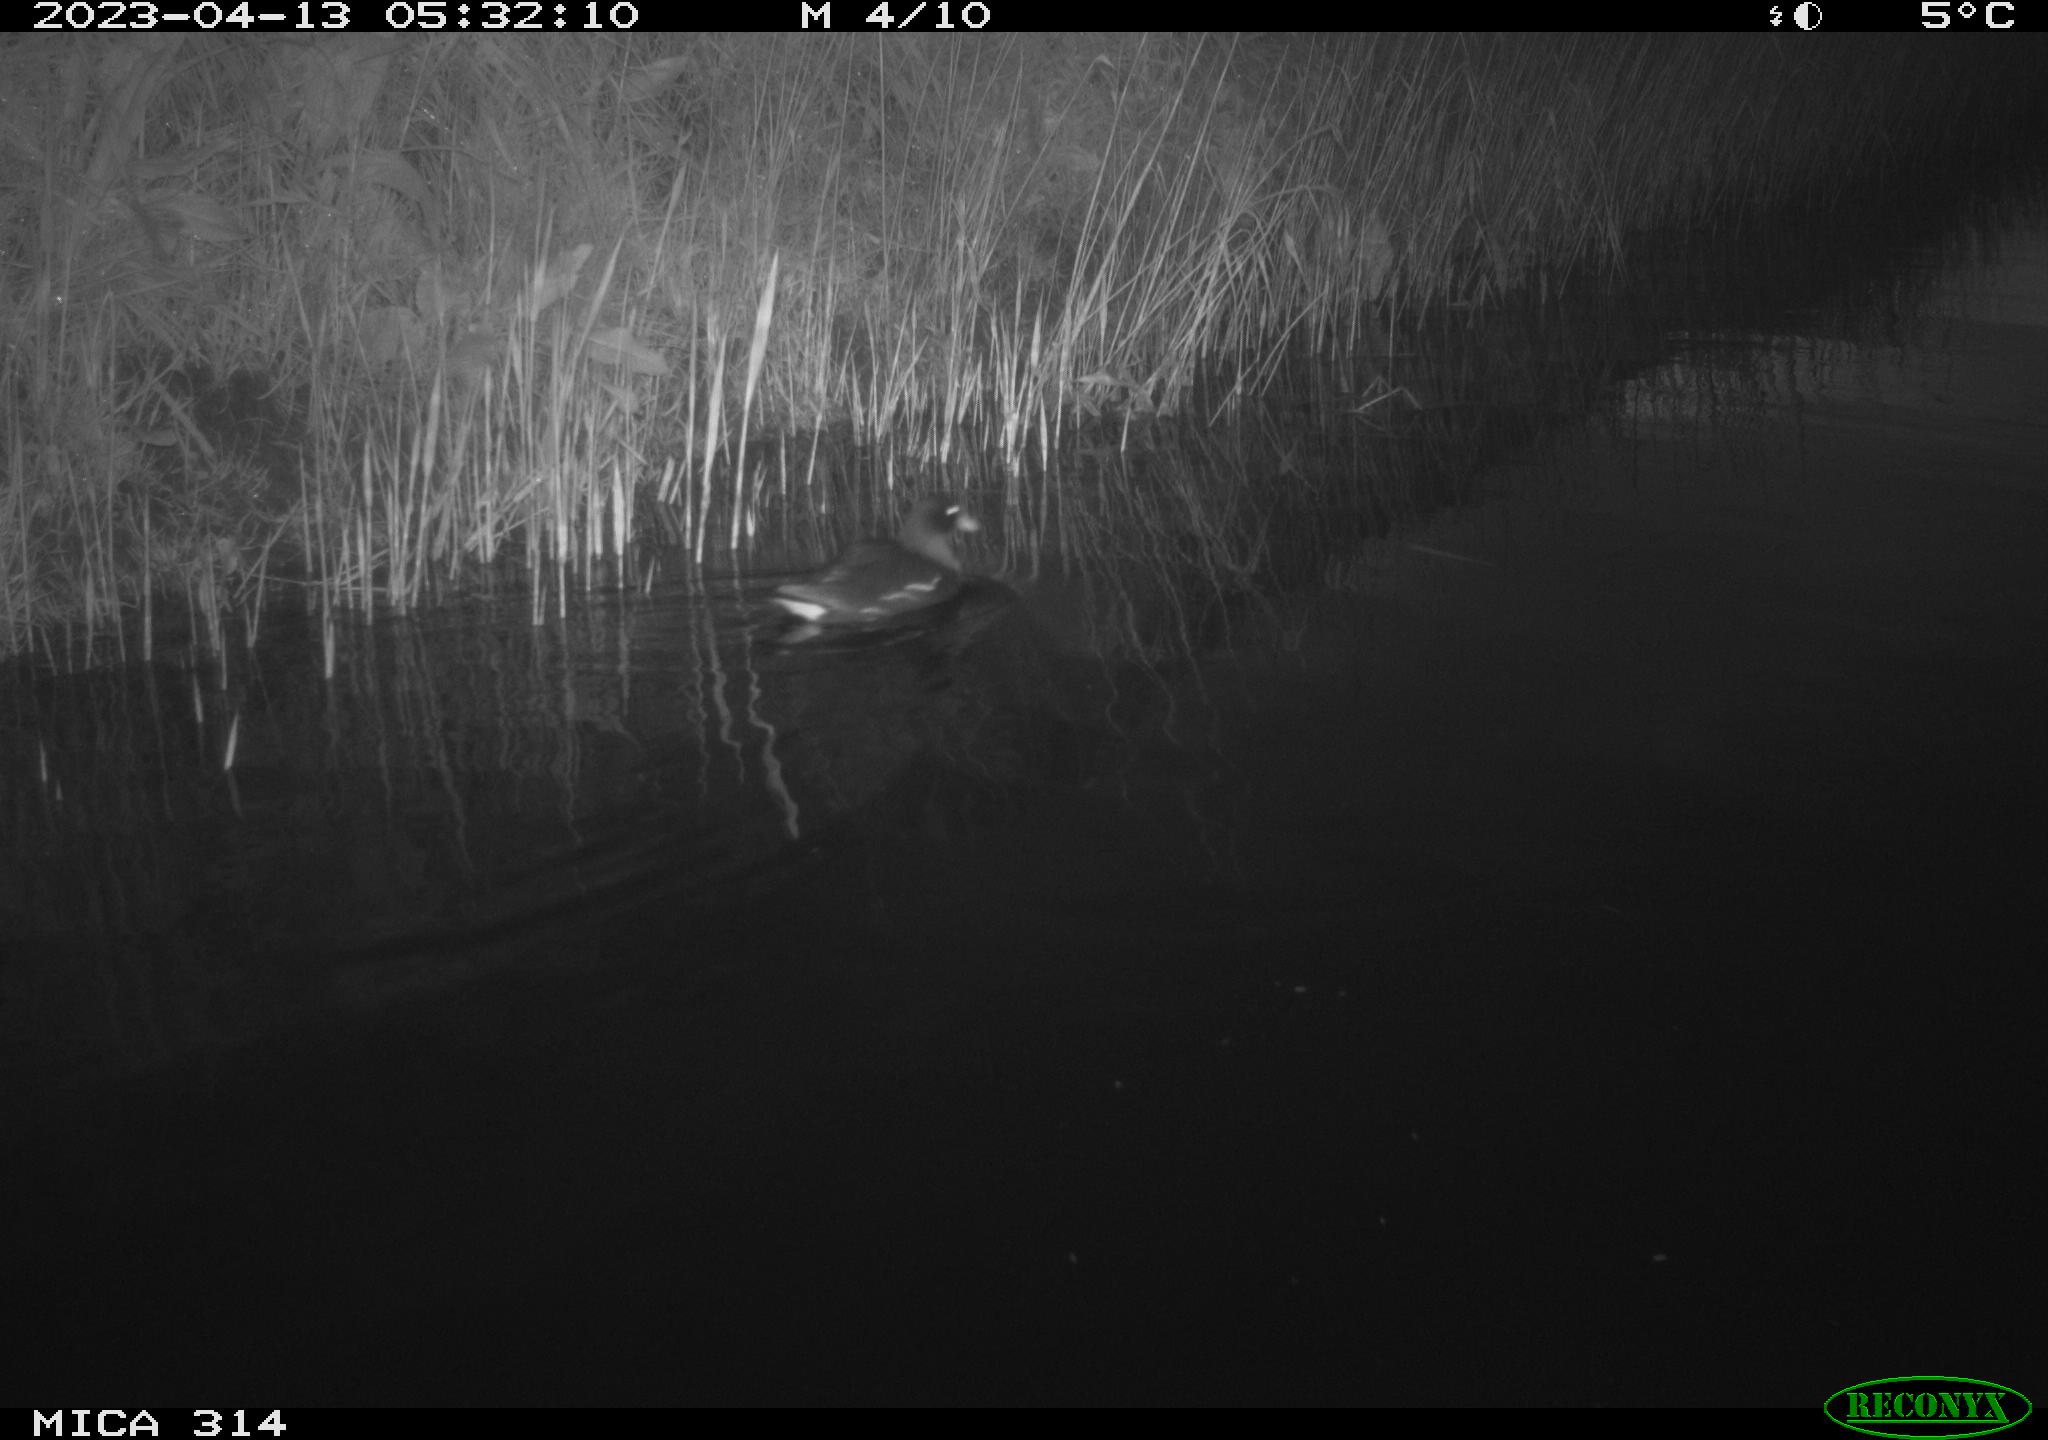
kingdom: Animalia
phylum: Chordata
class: Aves
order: Gruiformes
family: Rallidae
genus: Gallinula
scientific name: Gallinula chloropus
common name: Common moorhen
